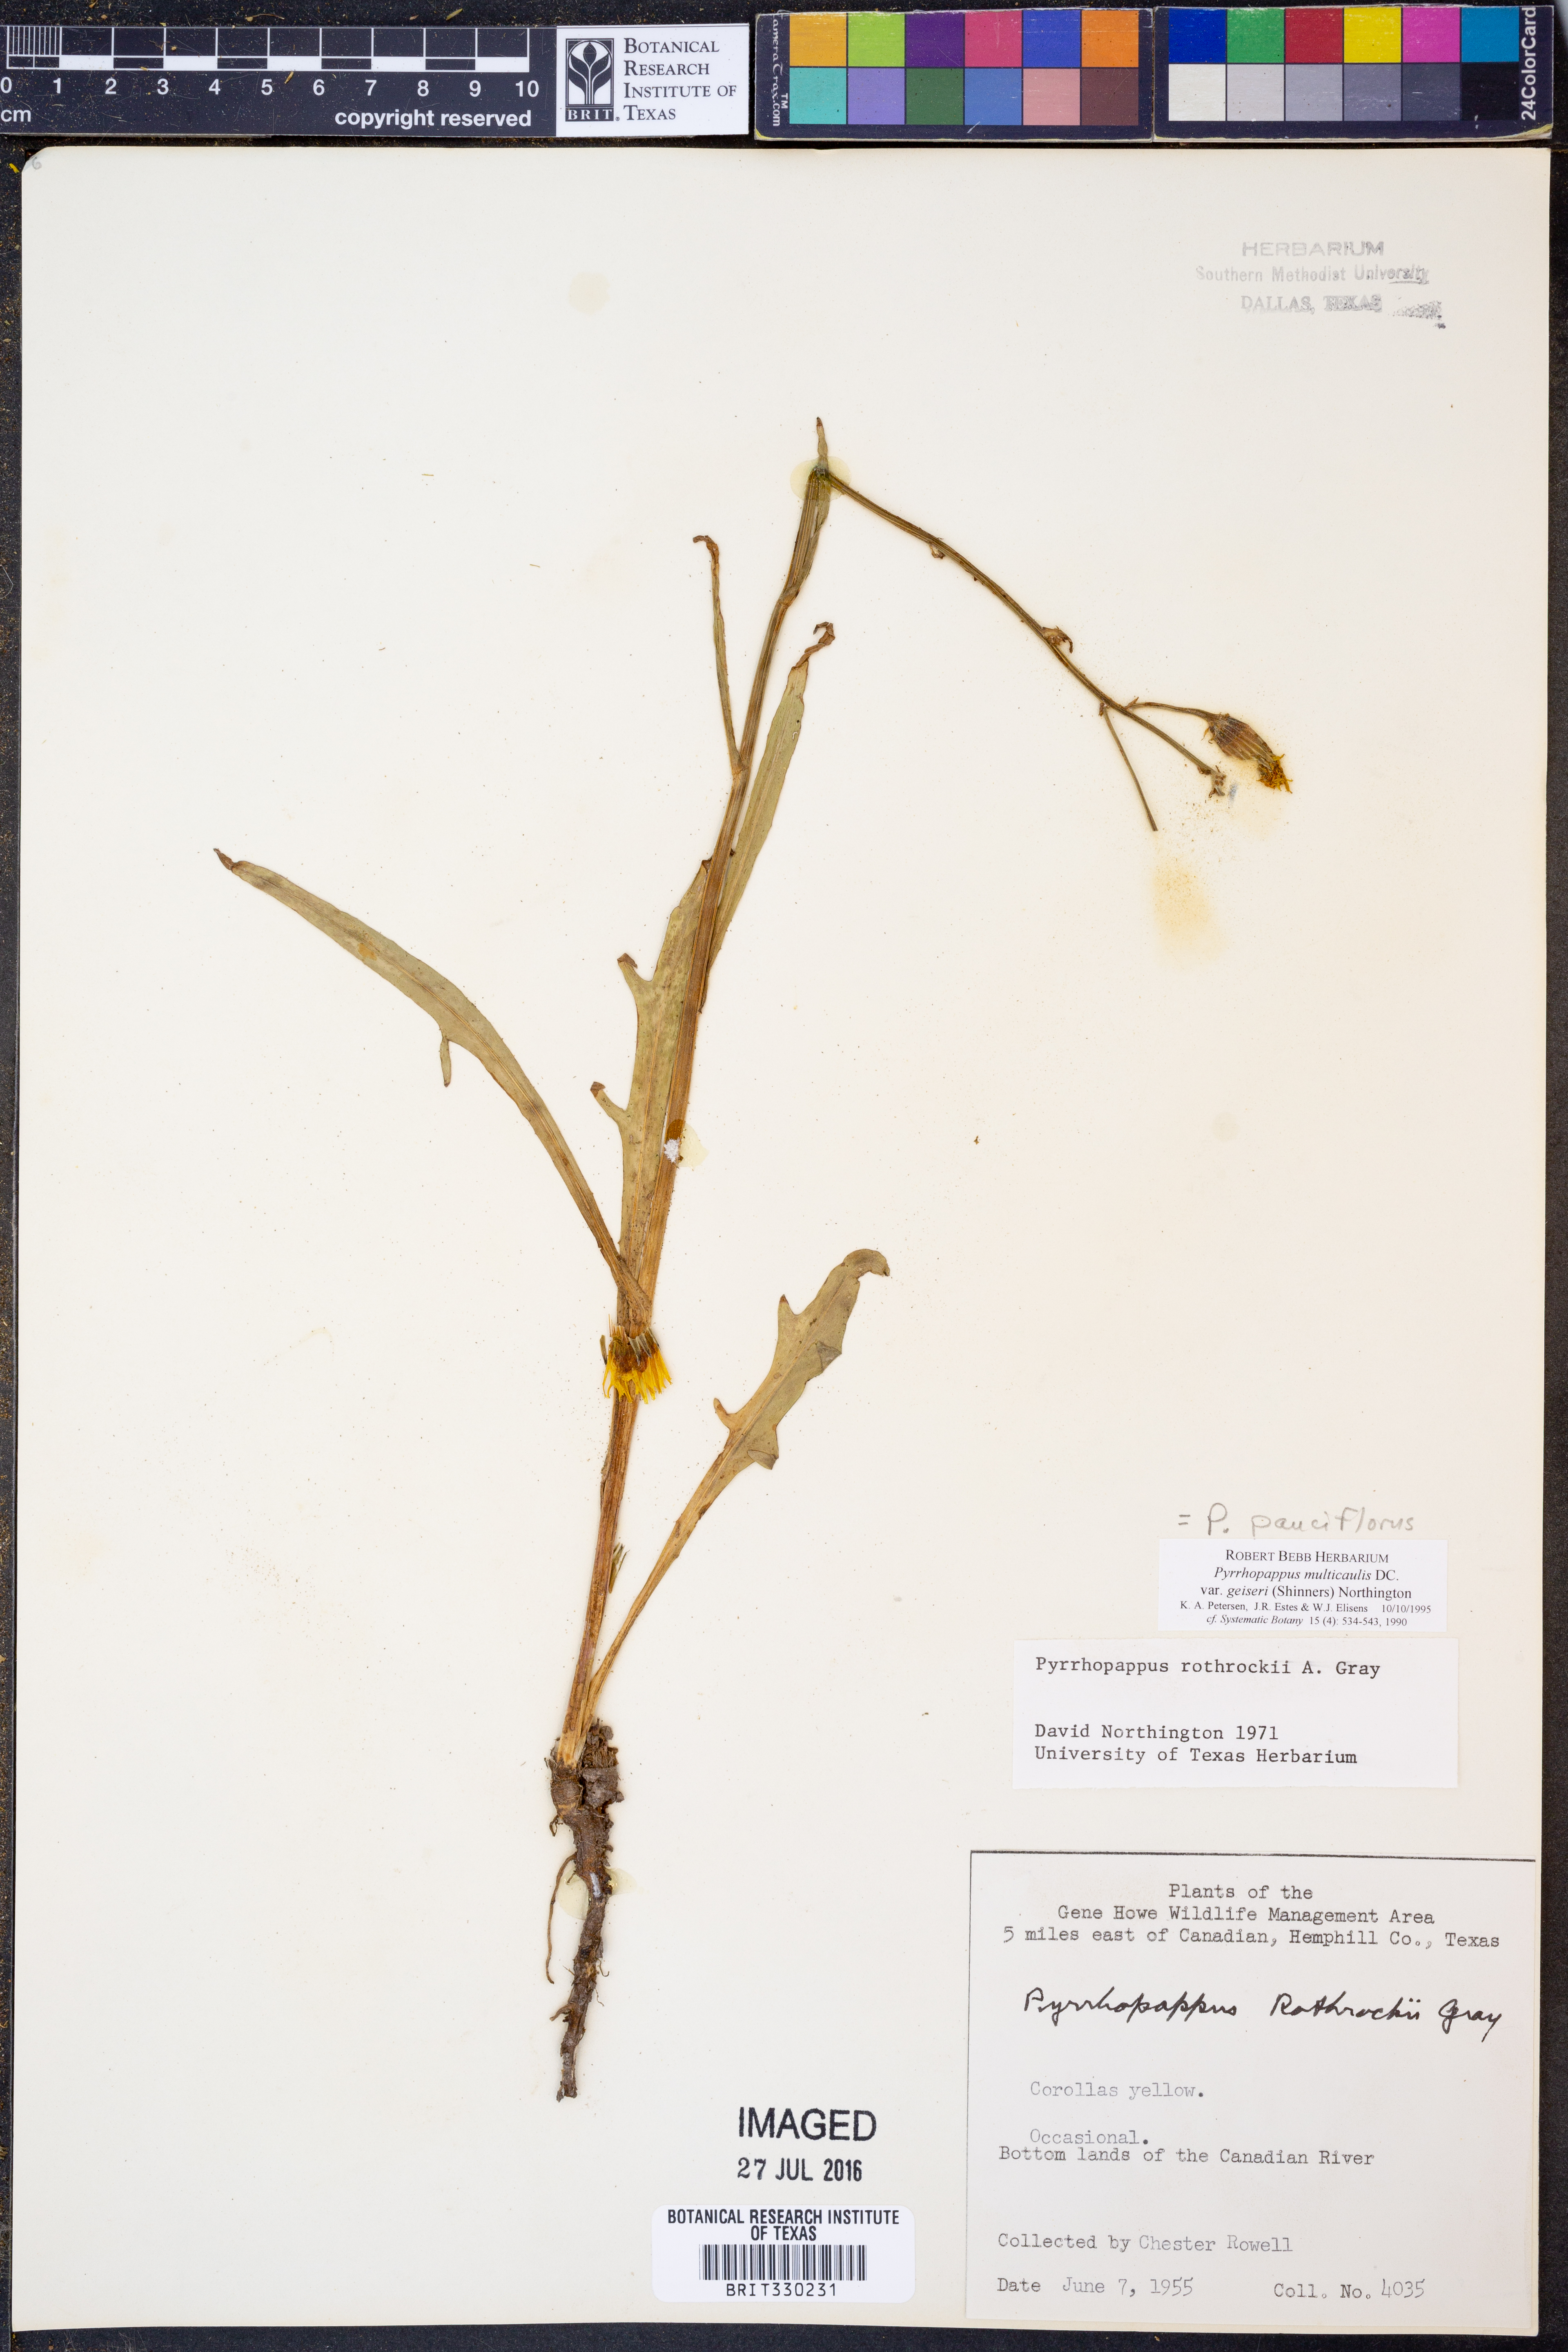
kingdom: Plantae
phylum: Tracheophyta
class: Magnoliopsida
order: Asterales
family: Asteraceae
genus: Pyrrhopappus
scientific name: Pyrrhopappus pauciflorus
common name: Texas false dandelion
